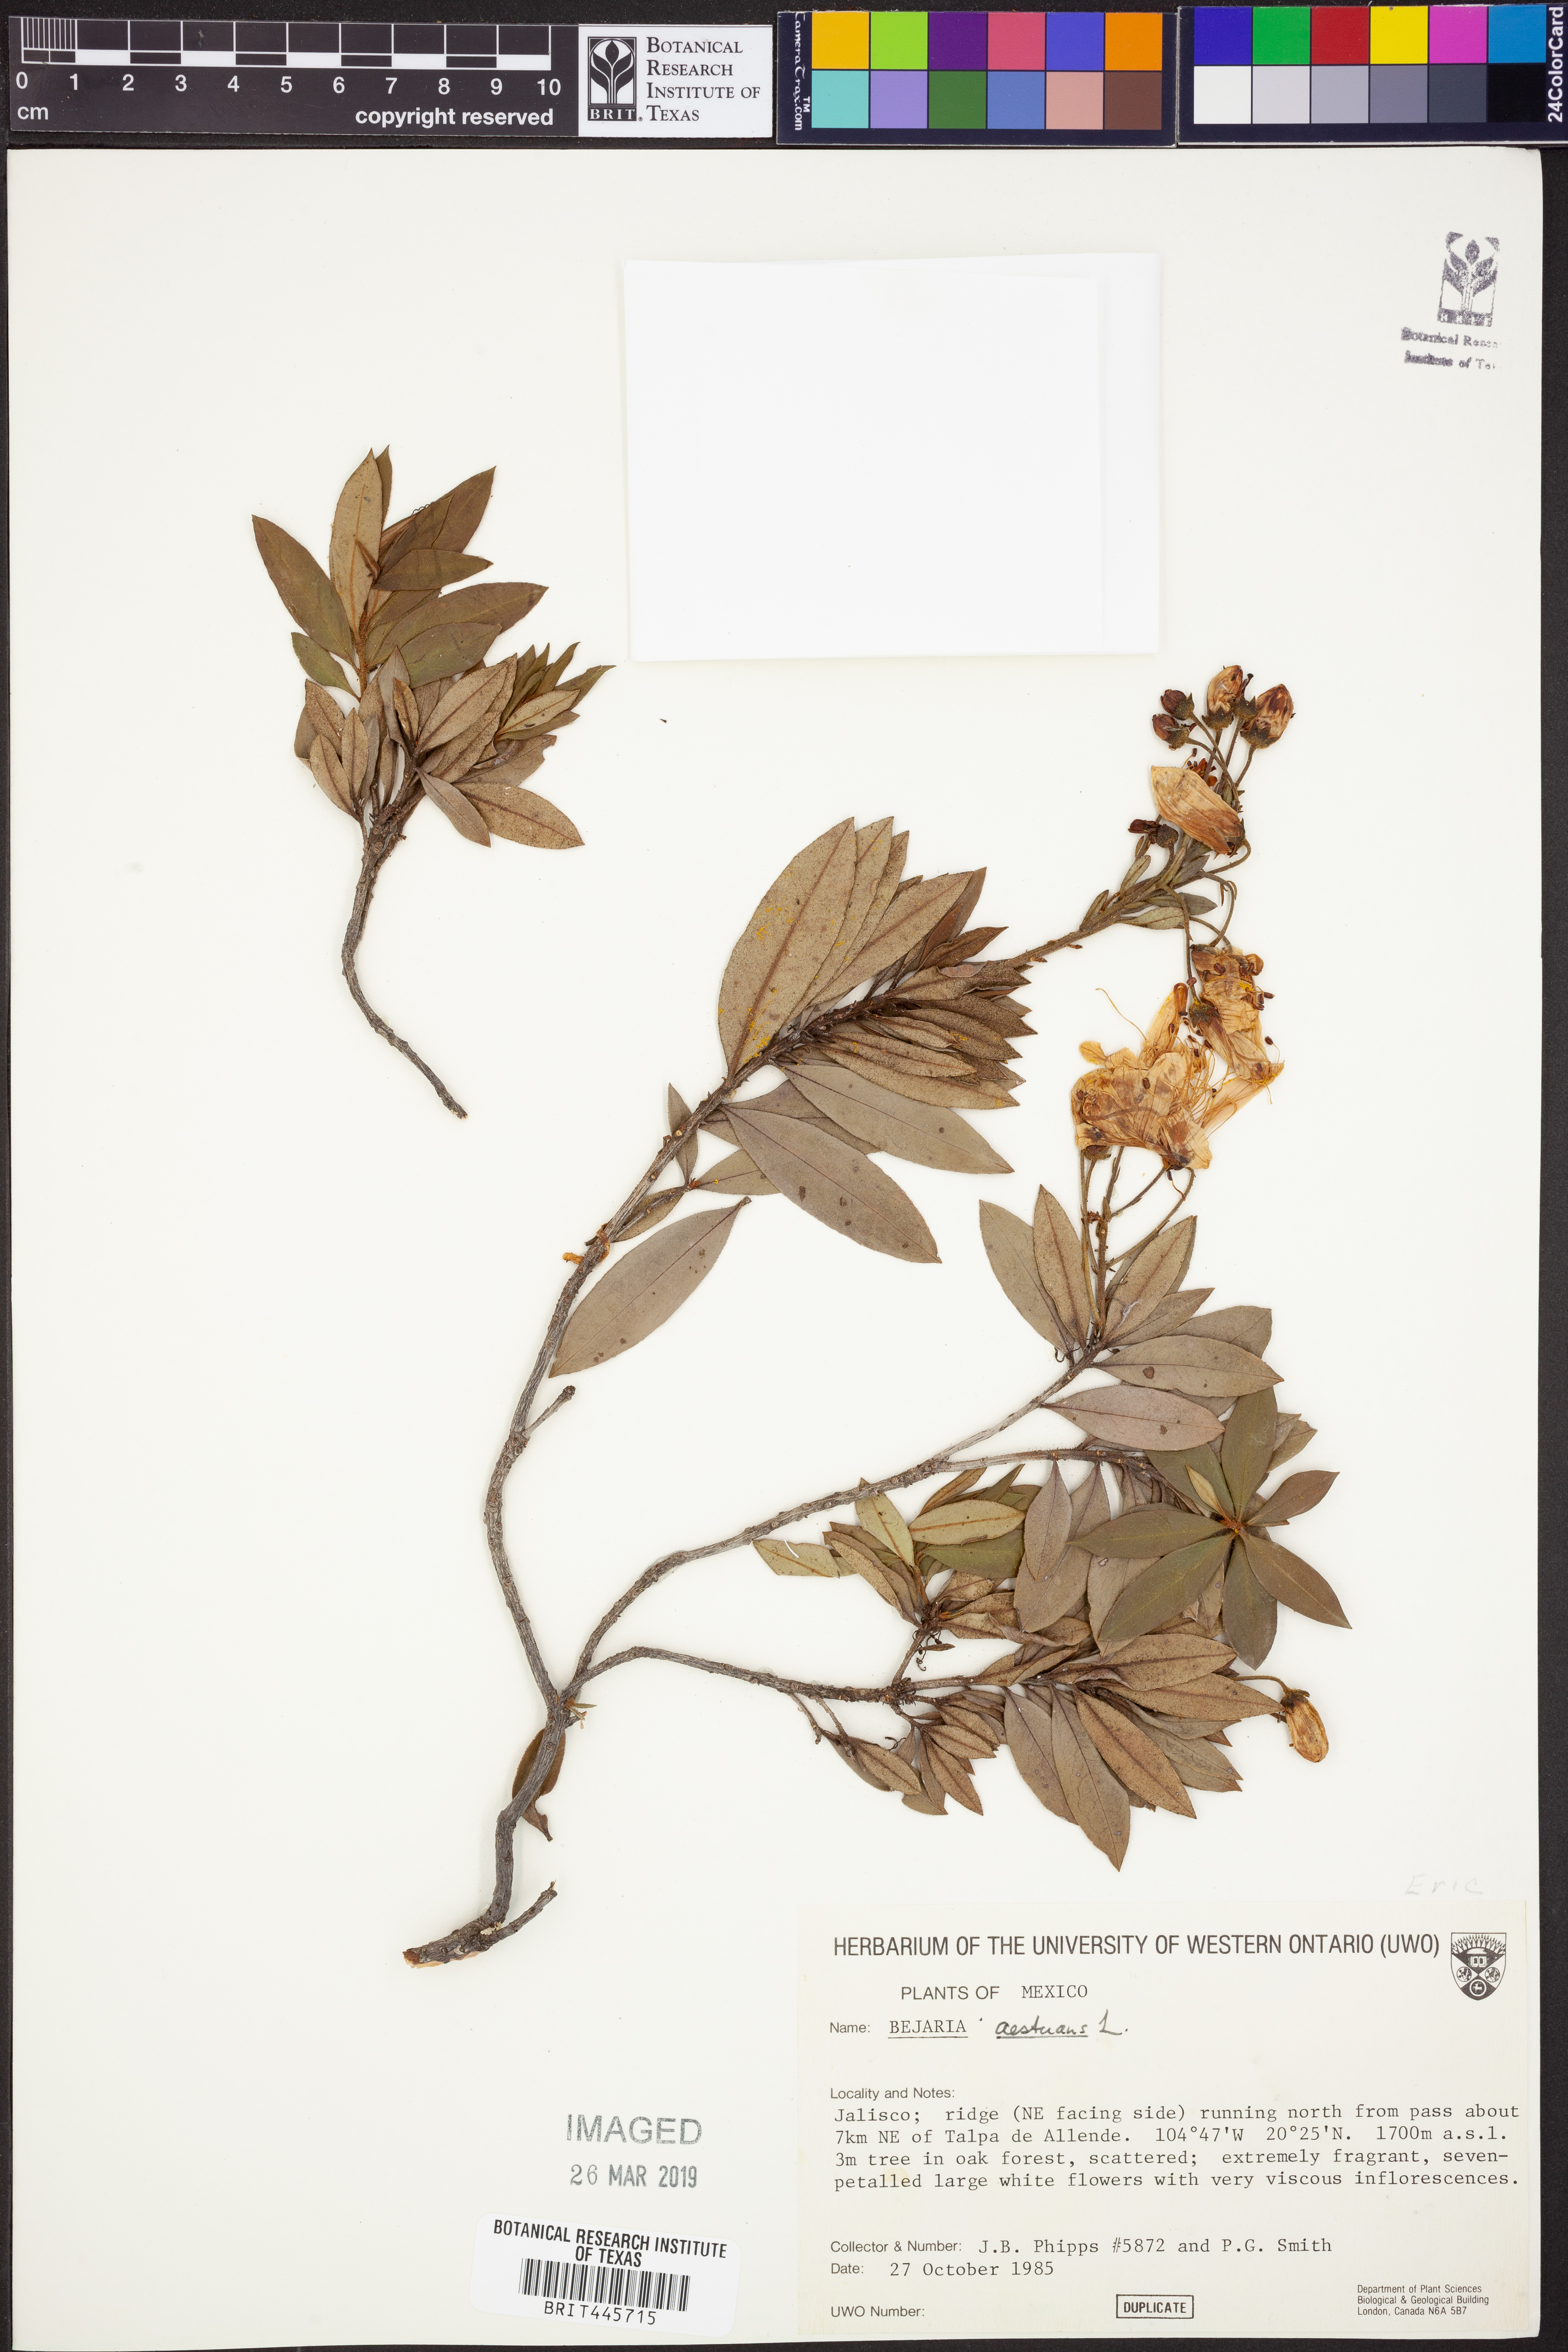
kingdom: Plantae
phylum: Tracheophyta
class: Magnoliopsida
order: Ericales
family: Ericaceae
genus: Bejaria
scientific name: Bejaria aestuans
